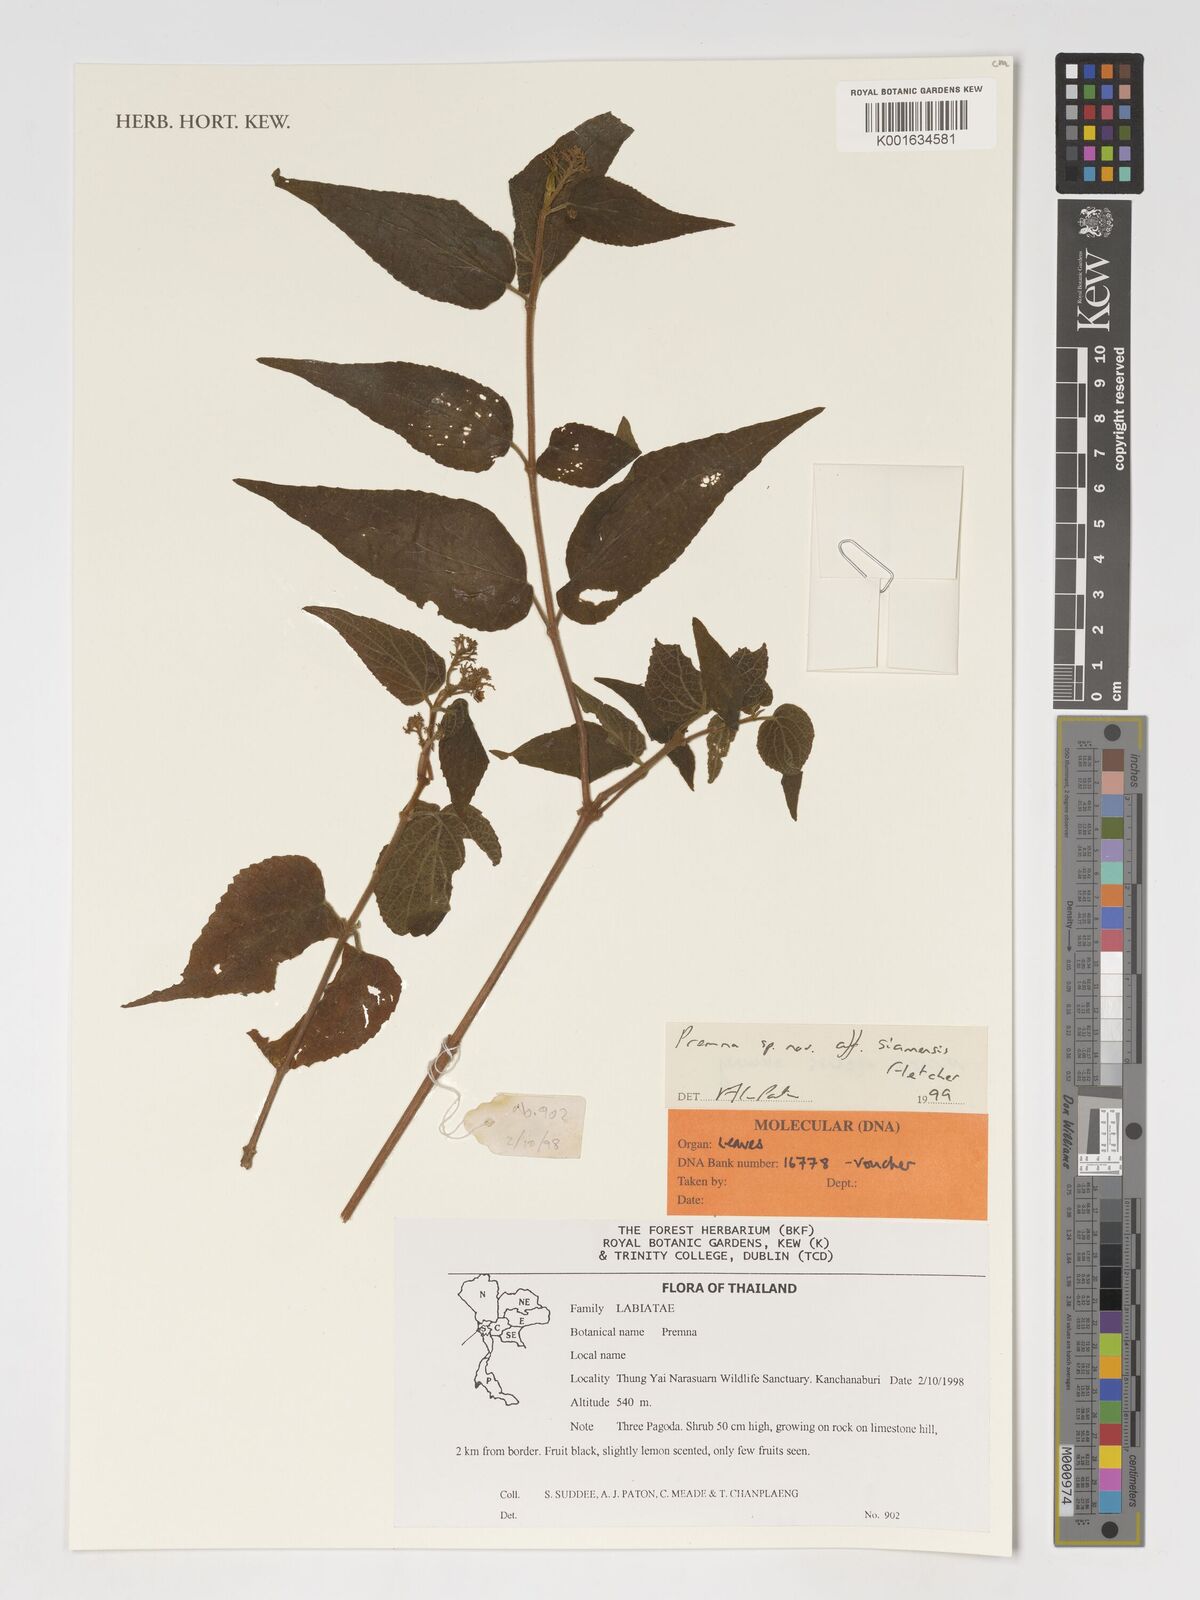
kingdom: Plantae
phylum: Tracheophyta
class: Magnoliopsida
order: Lamiales
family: Lamiaceae
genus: Premna
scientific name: Premna serrata
